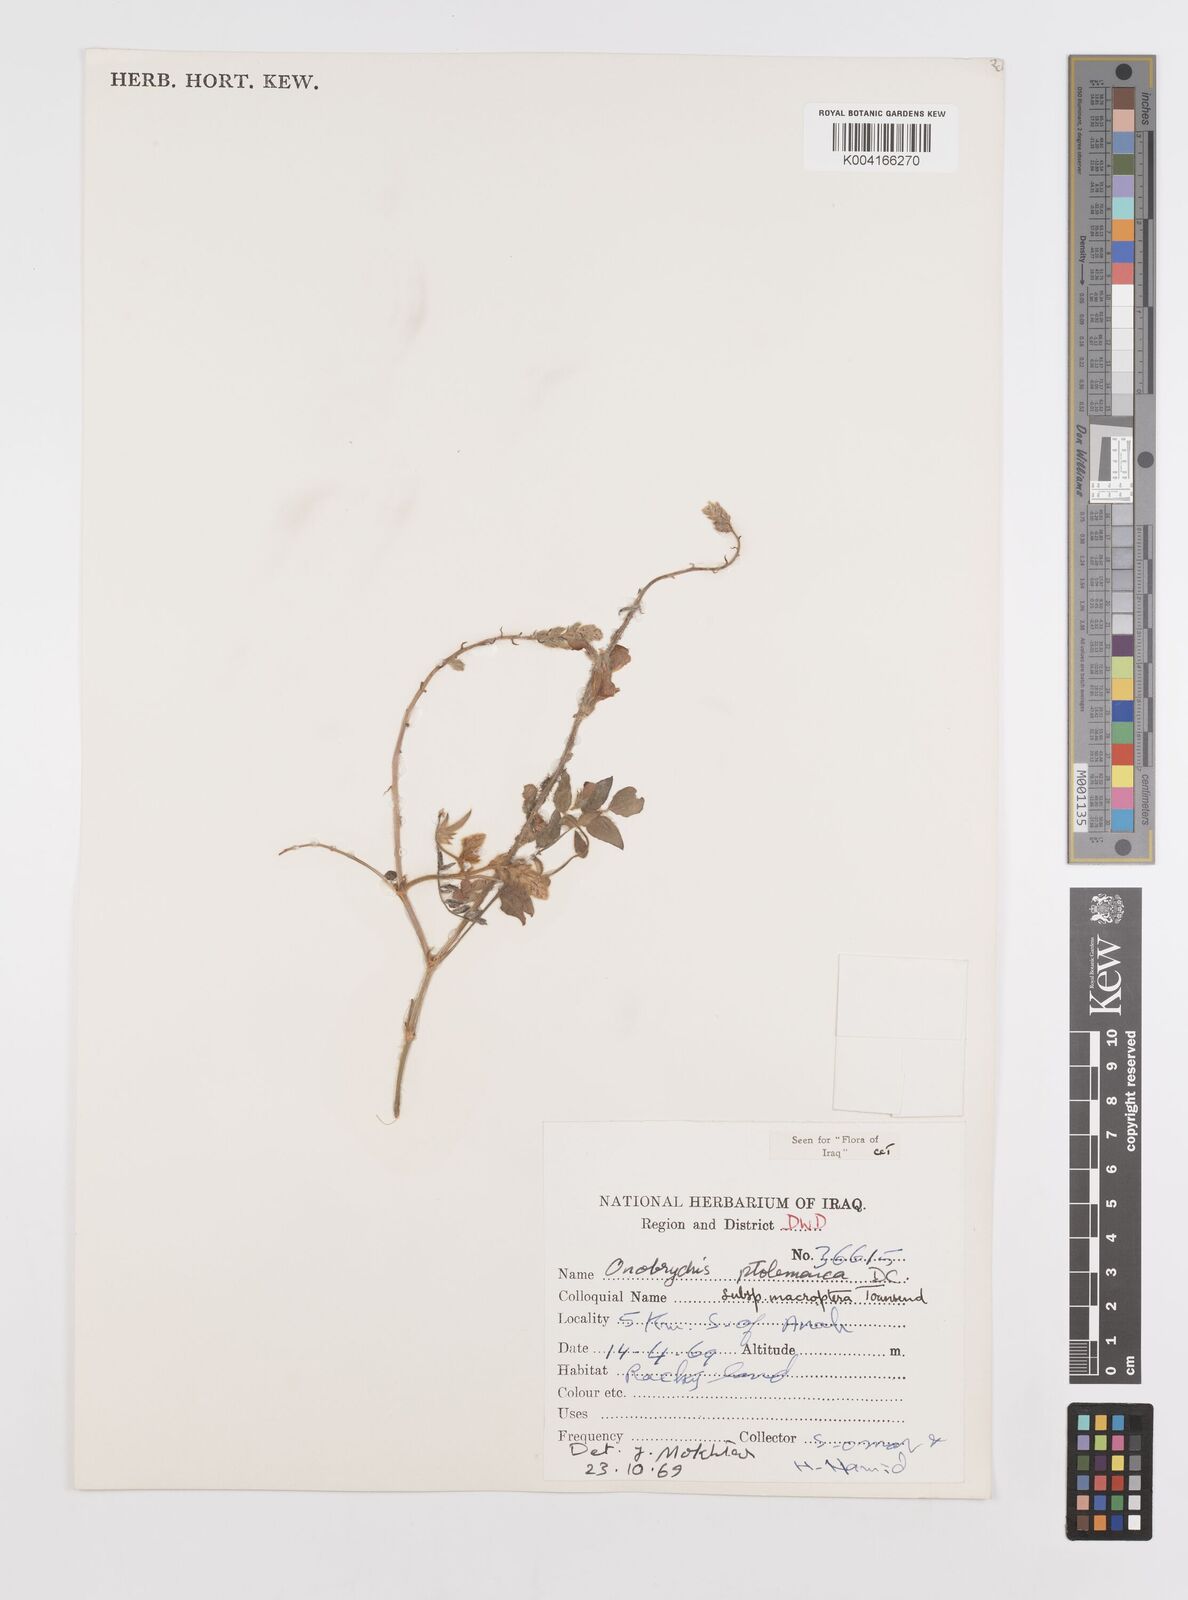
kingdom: Plantae
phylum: Tracheophyta
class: Magnoliopsida
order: Fabales
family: Fabaceae
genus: Onobrychis
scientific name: Onobrychis ptolemaica
